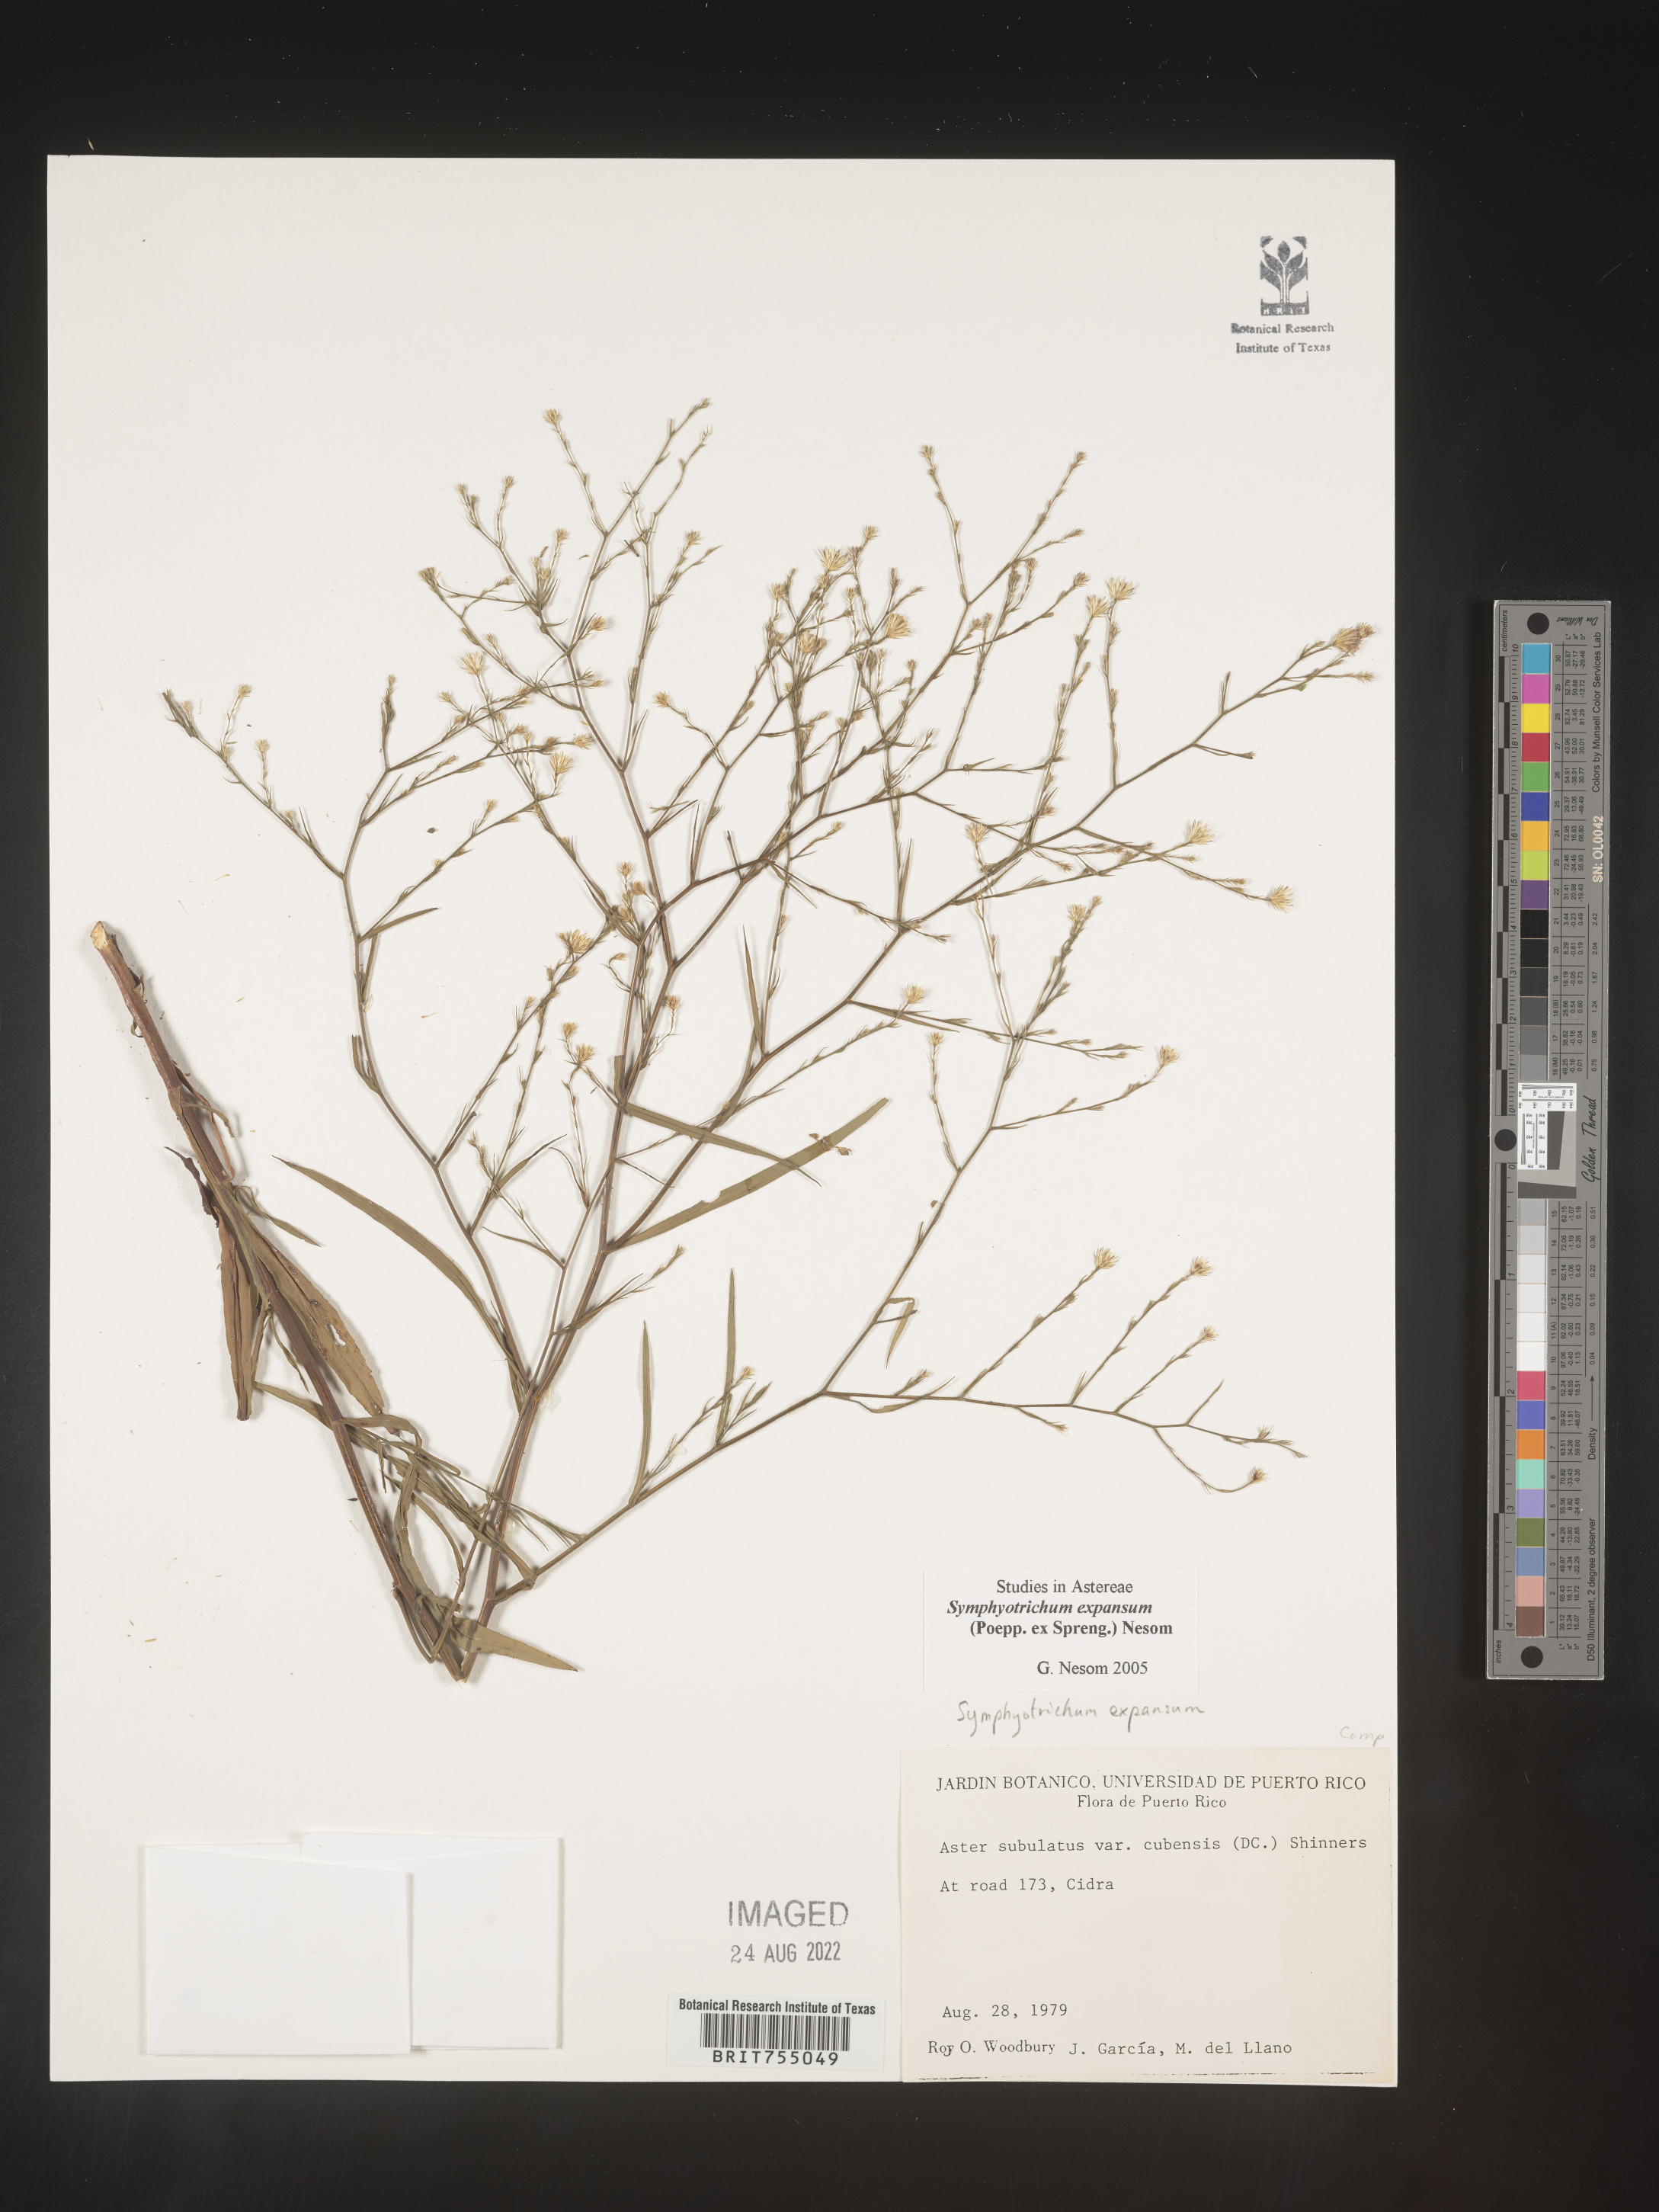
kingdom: Plantae
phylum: Tracheophyta
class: Magnoliopsida
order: Asterales
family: Asteraceae
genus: Symphyotrichum
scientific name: Symphyotrichum expansum
